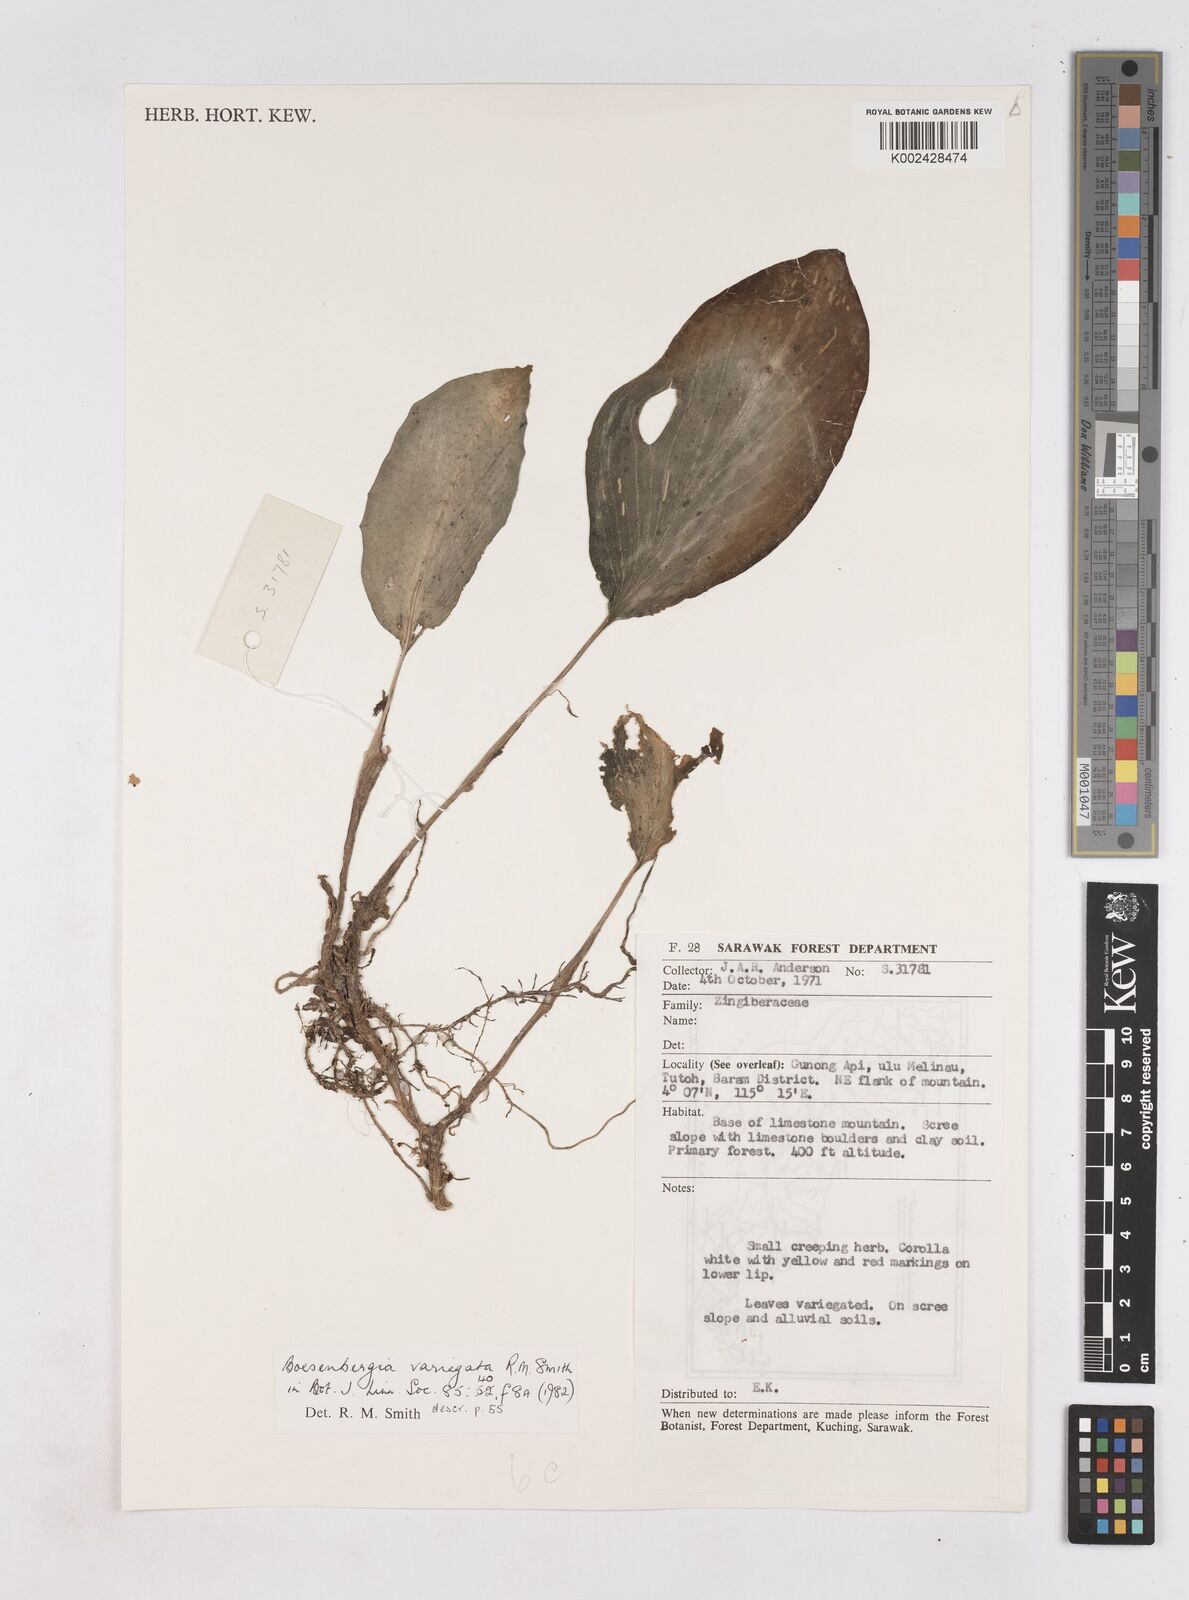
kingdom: Plantae
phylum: Tracheophyta
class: Liliopsida
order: Zingiberales
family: Zingiberaceae
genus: Boesenbergia
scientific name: Boesenbergia variegata
